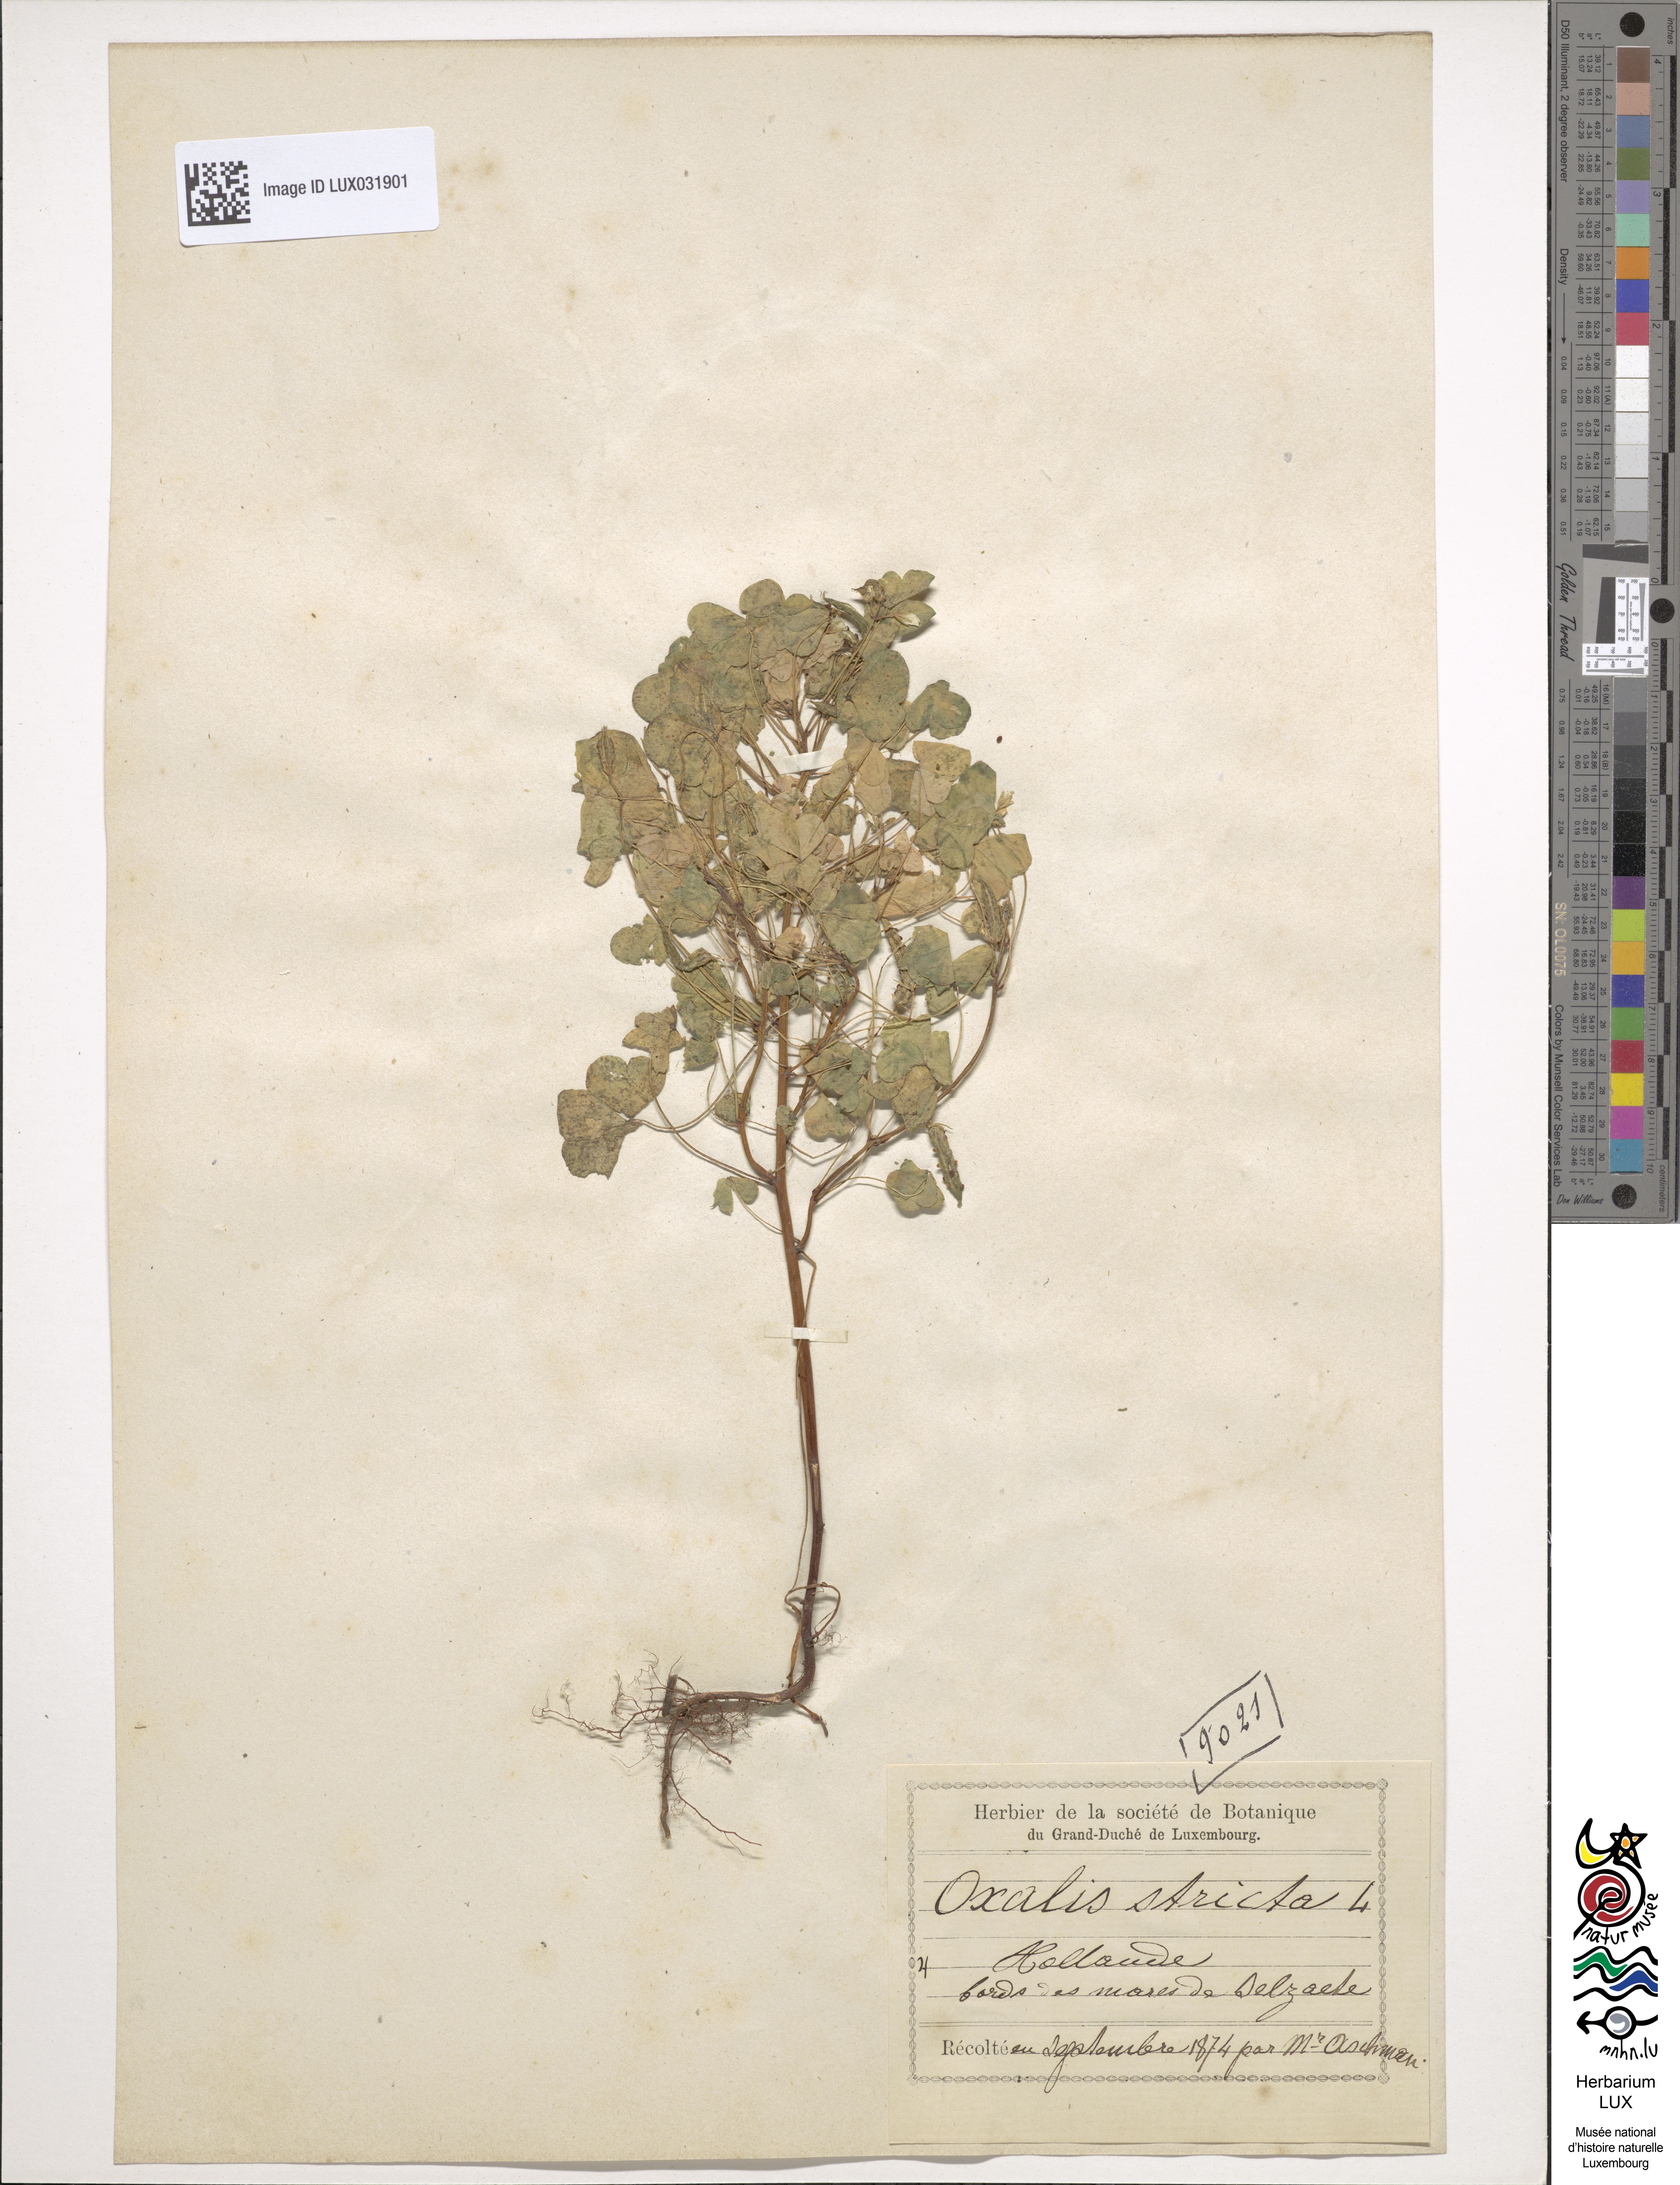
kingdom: Plantae
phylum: Tracheophyta
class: Magnoliopsida
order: Oxalidales
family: Oxalidaceae
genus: Oxalis
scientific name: Oxalis stricta
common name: Upright yellow-sorrel
